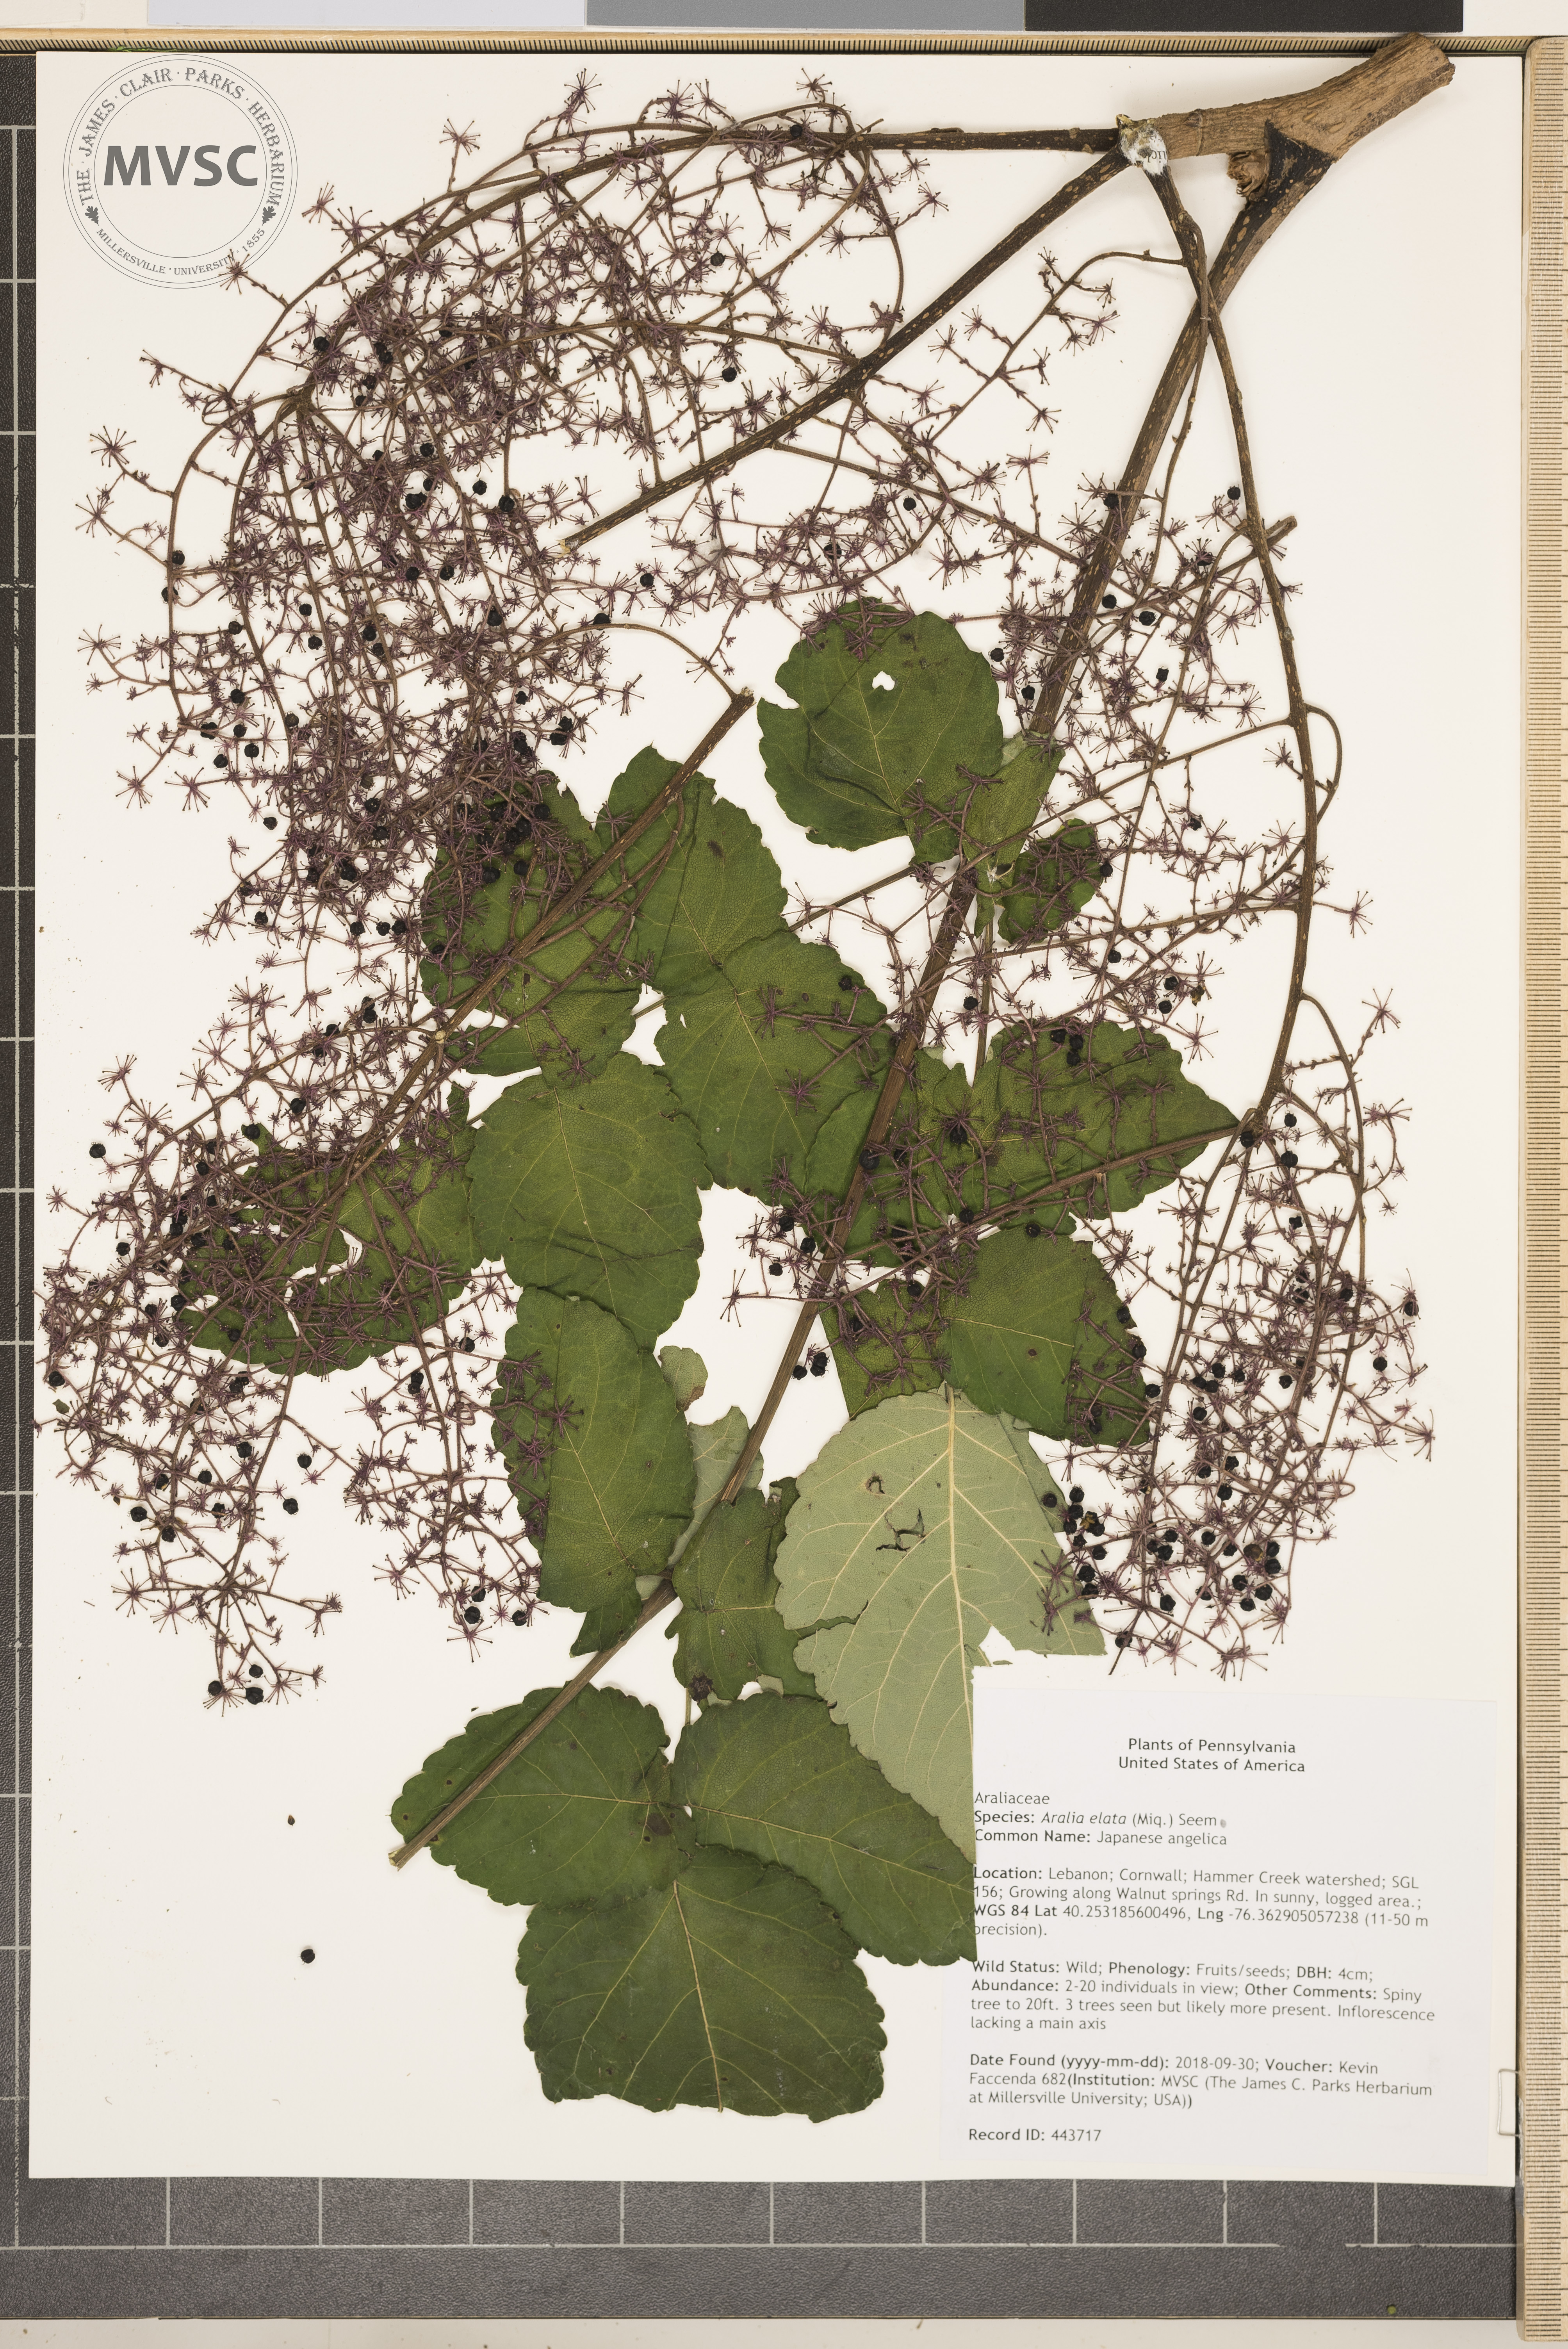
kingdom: Plantae
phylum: Tracheophyta
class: Magnoliopsida
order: Apiales
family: Araliaceae
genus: Aralia
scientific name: Aralia elata
